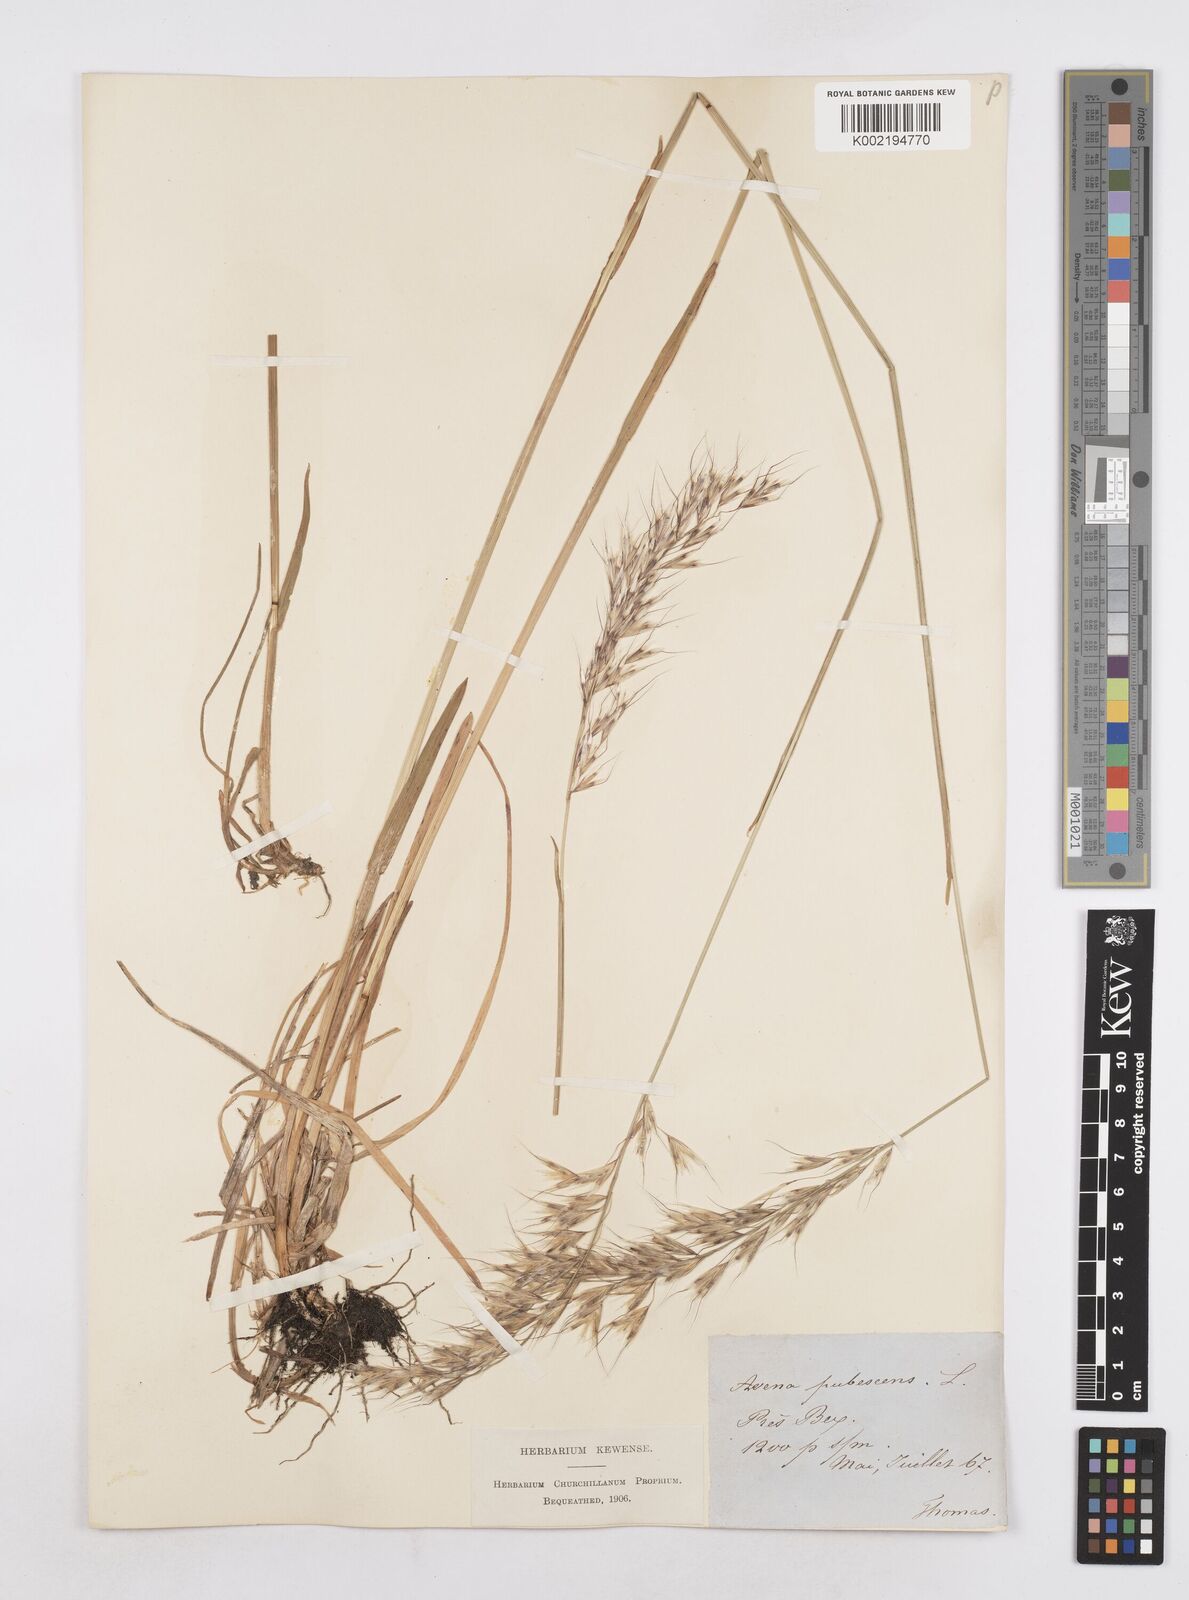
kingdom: Plantae
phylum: Tracheophyta
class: Liliopsida
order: Poales
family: Poaceae
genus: Avenula
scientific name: Avenula pubescens
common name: Downy alpine oatgrass
